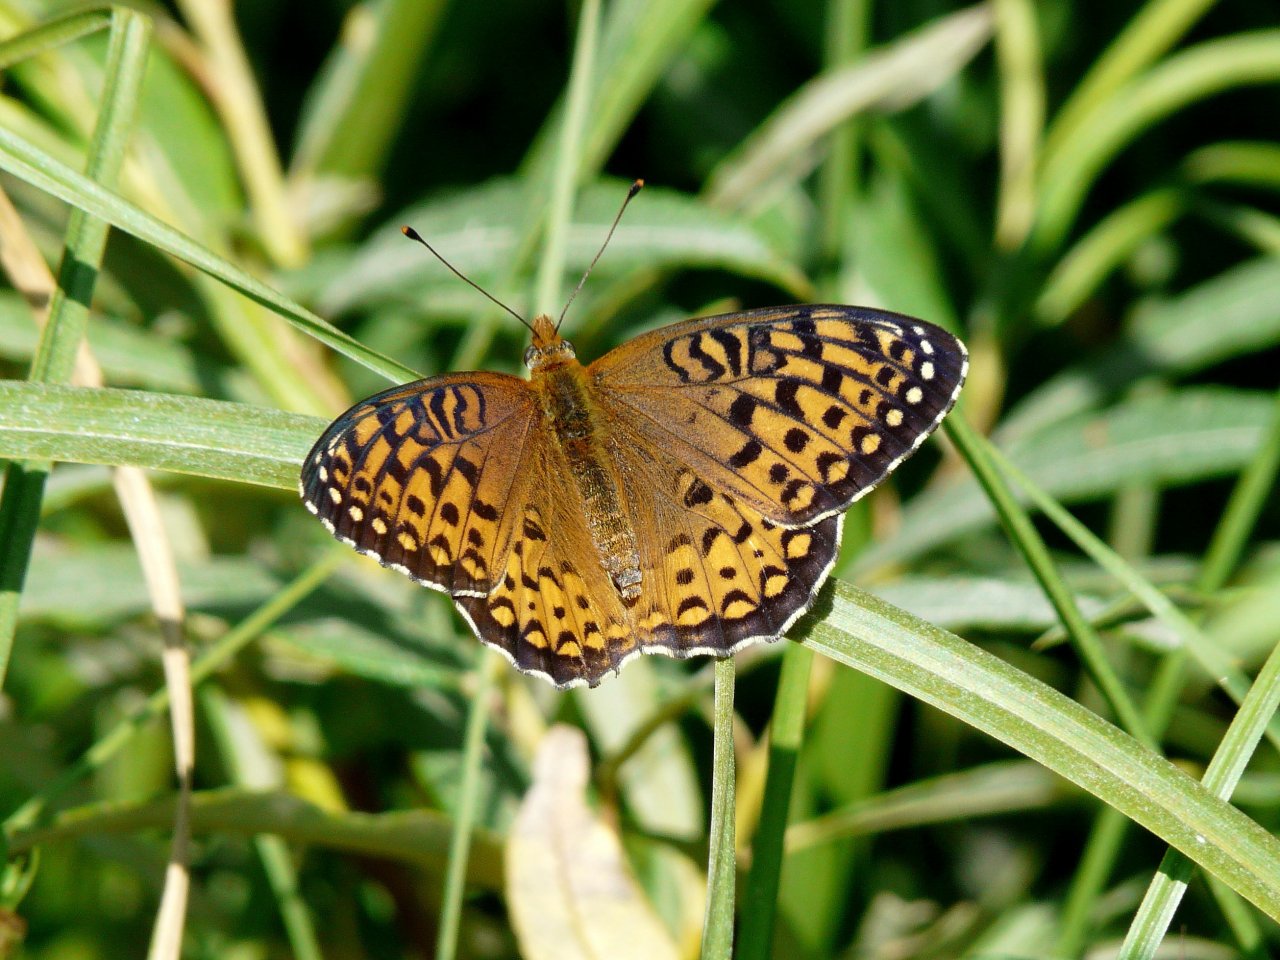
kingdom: Animalia
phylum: Arthropoda
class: Insecta
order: Lepidoptera
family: Nymphalidae
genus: Speyeria
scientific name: Speyeria atlantis
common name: Atlantis Fritillary
